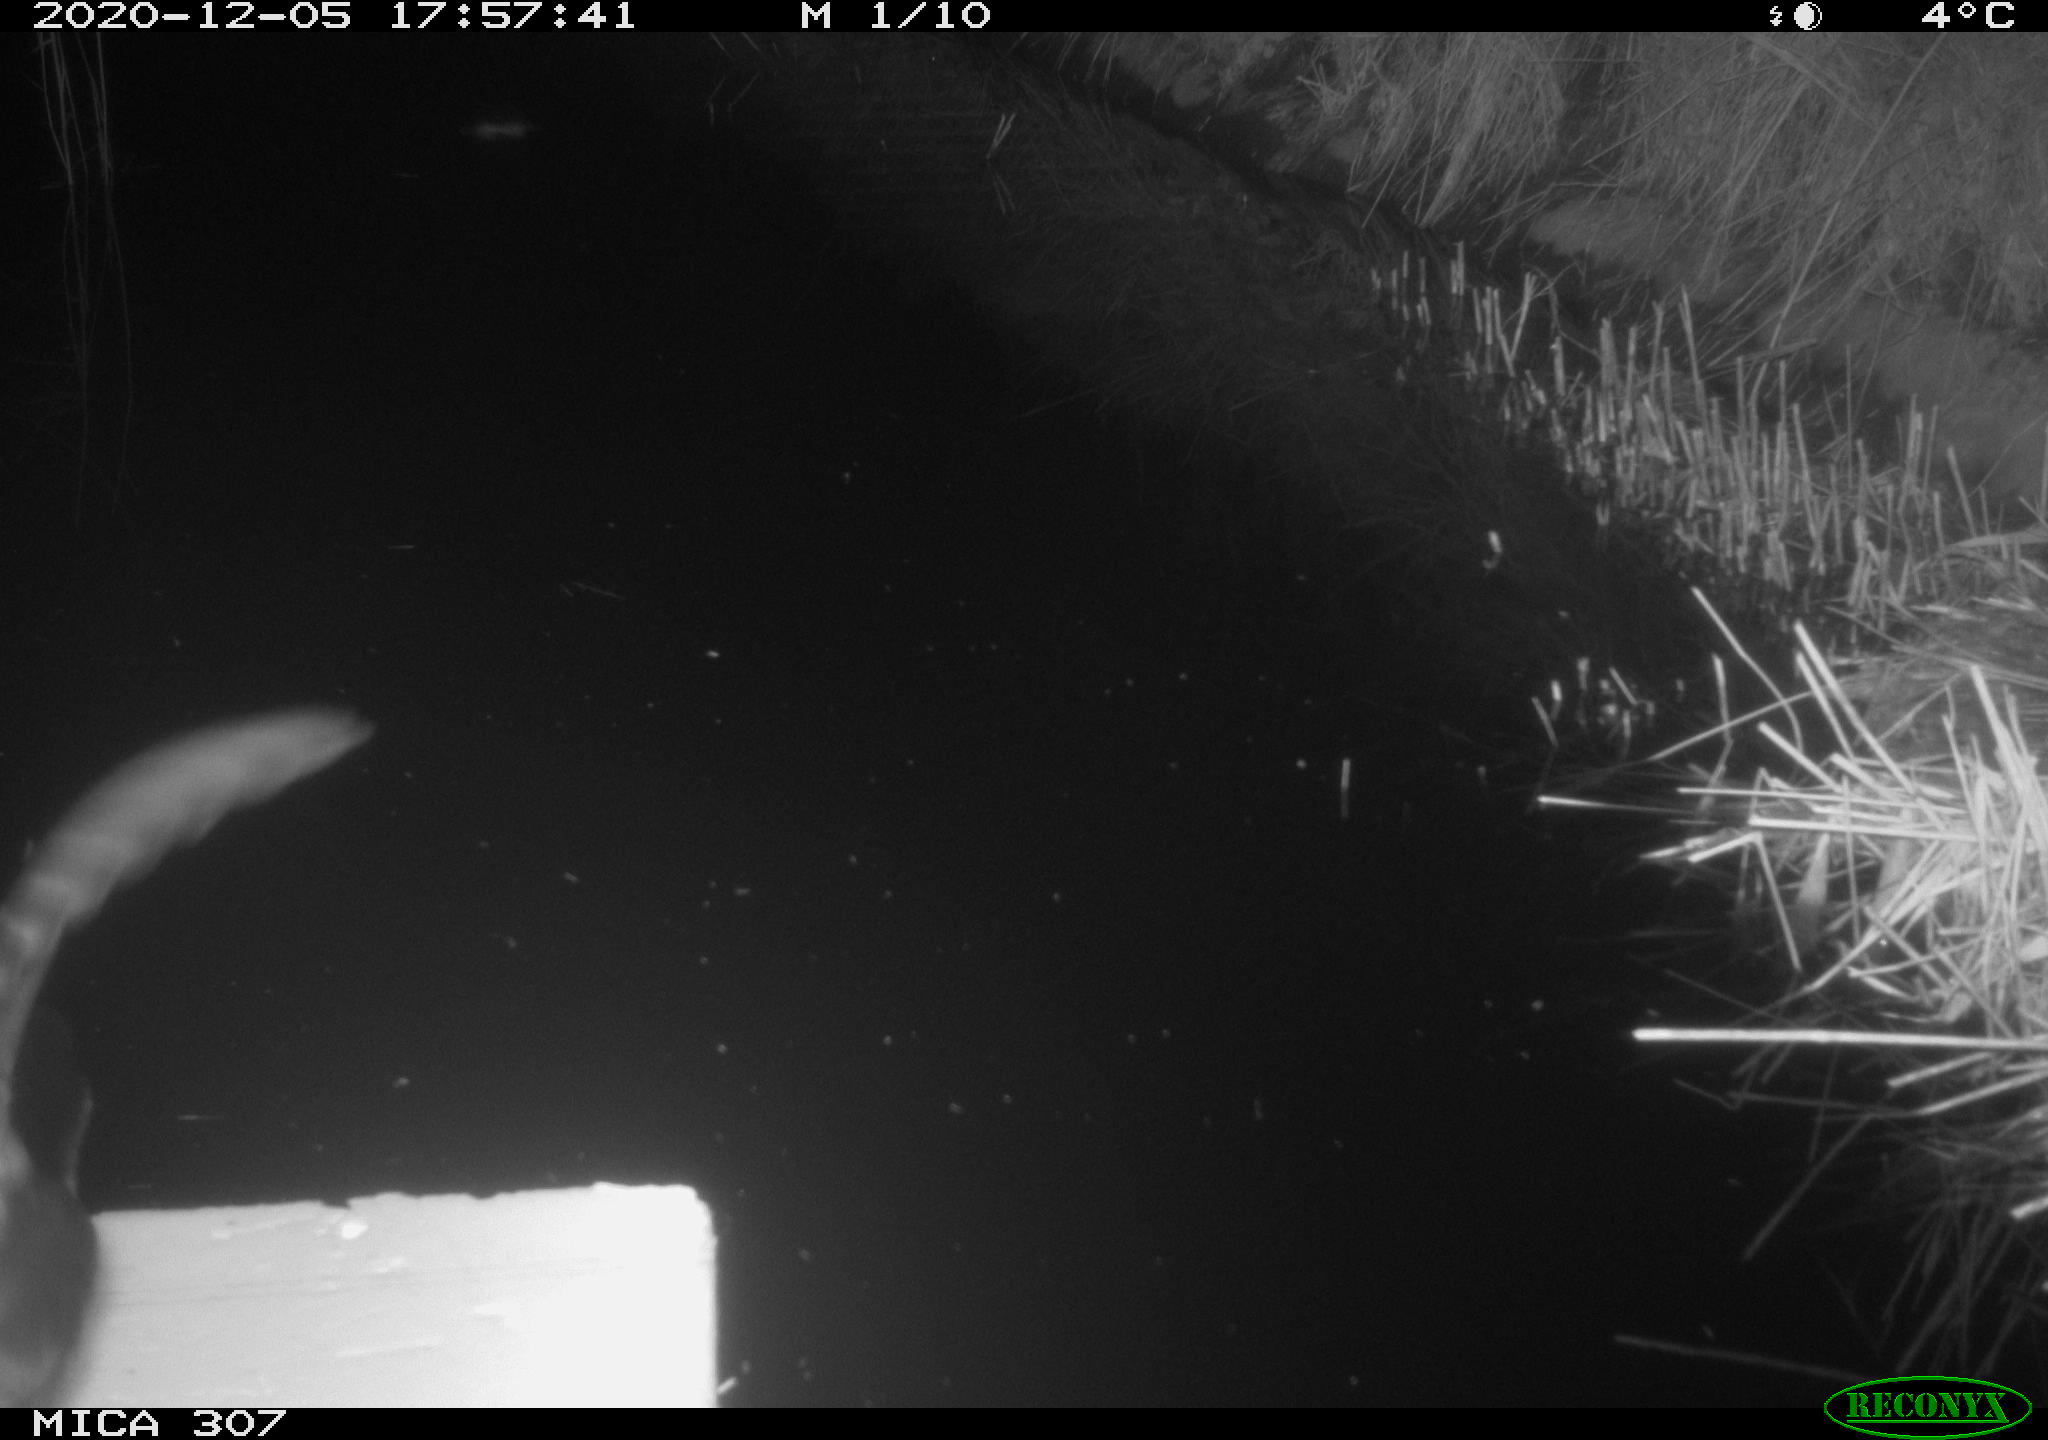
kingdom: Animalia
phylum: Chordata
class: Aves
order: Gruiformes
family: Rallidae
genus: Fulica
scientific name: Fulica atra
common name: Eurasian coot
